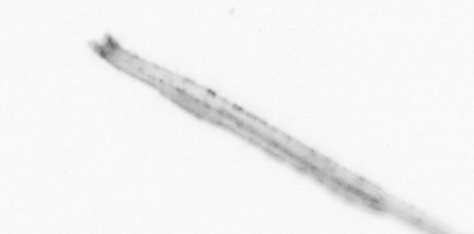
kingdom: Animalia
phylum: Chaetognatha
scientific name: Chaetognatha
